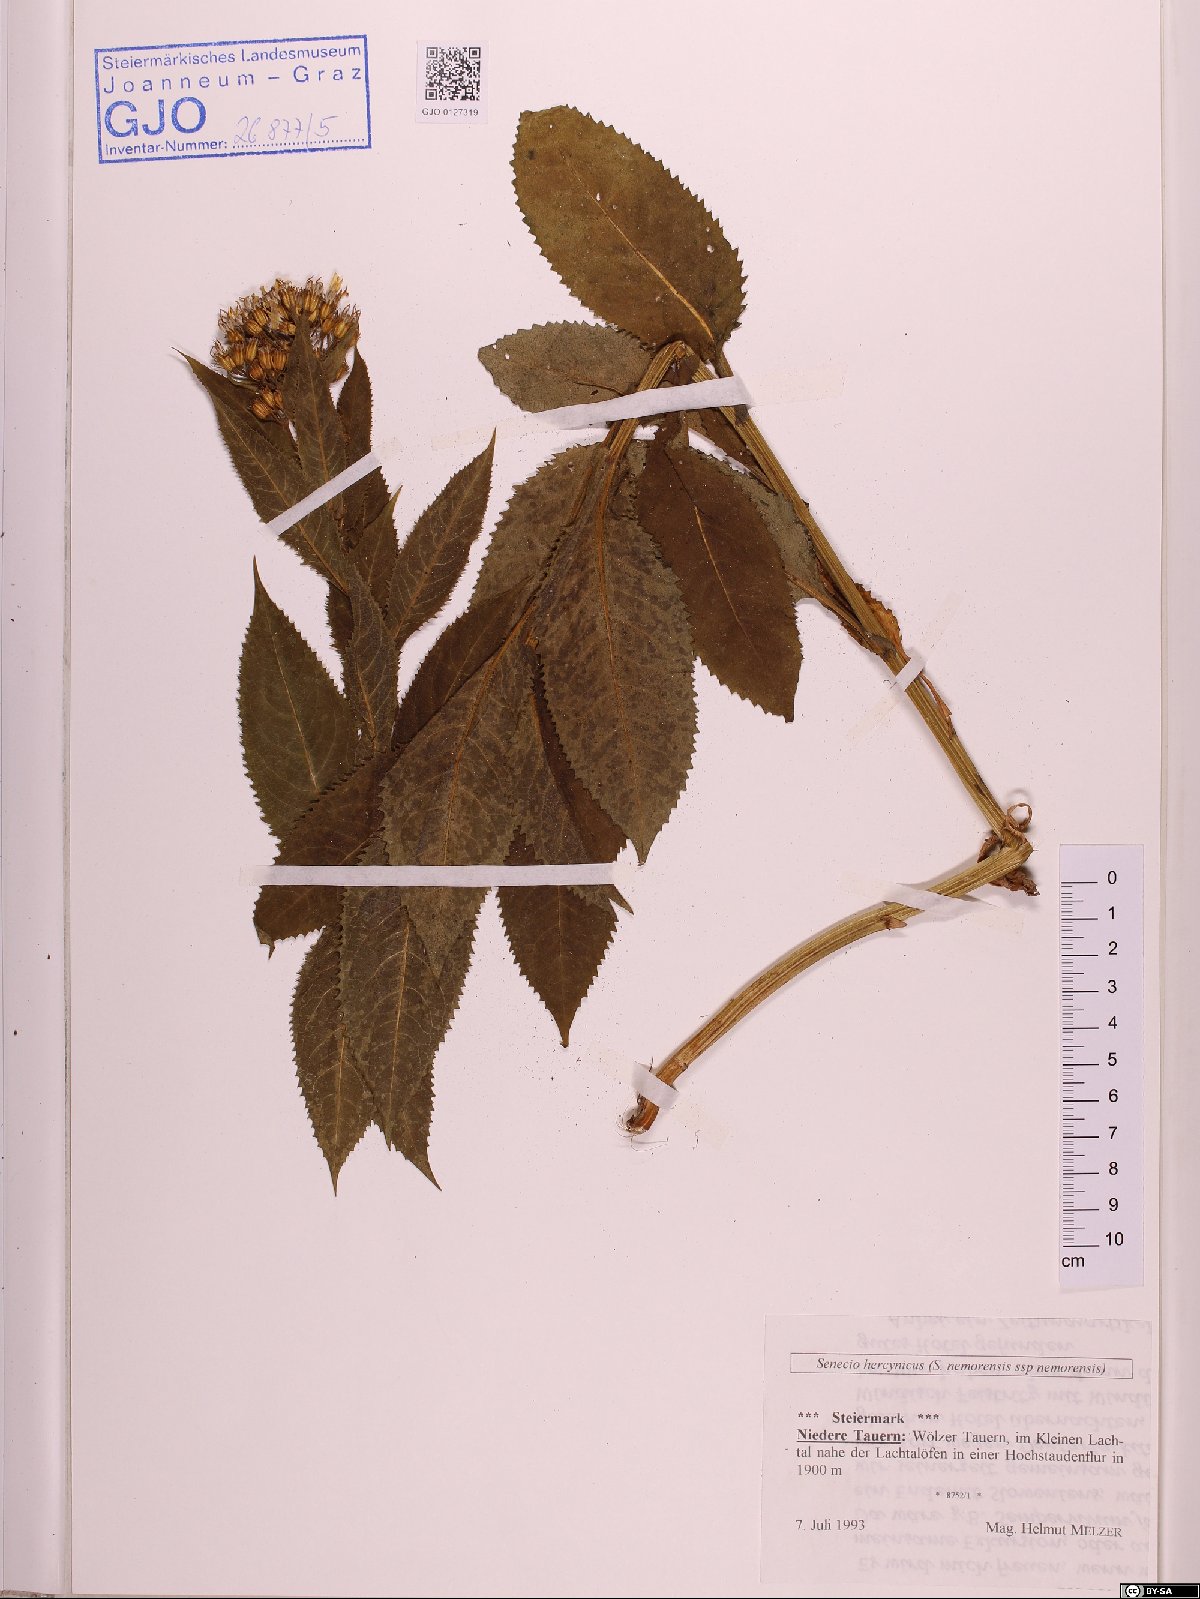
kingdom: Plantae
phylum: Tracheophyta
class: Magnoliopsida
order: Asterales
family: Asteraceae
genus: Senecio
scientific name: Senecio hercynicus
